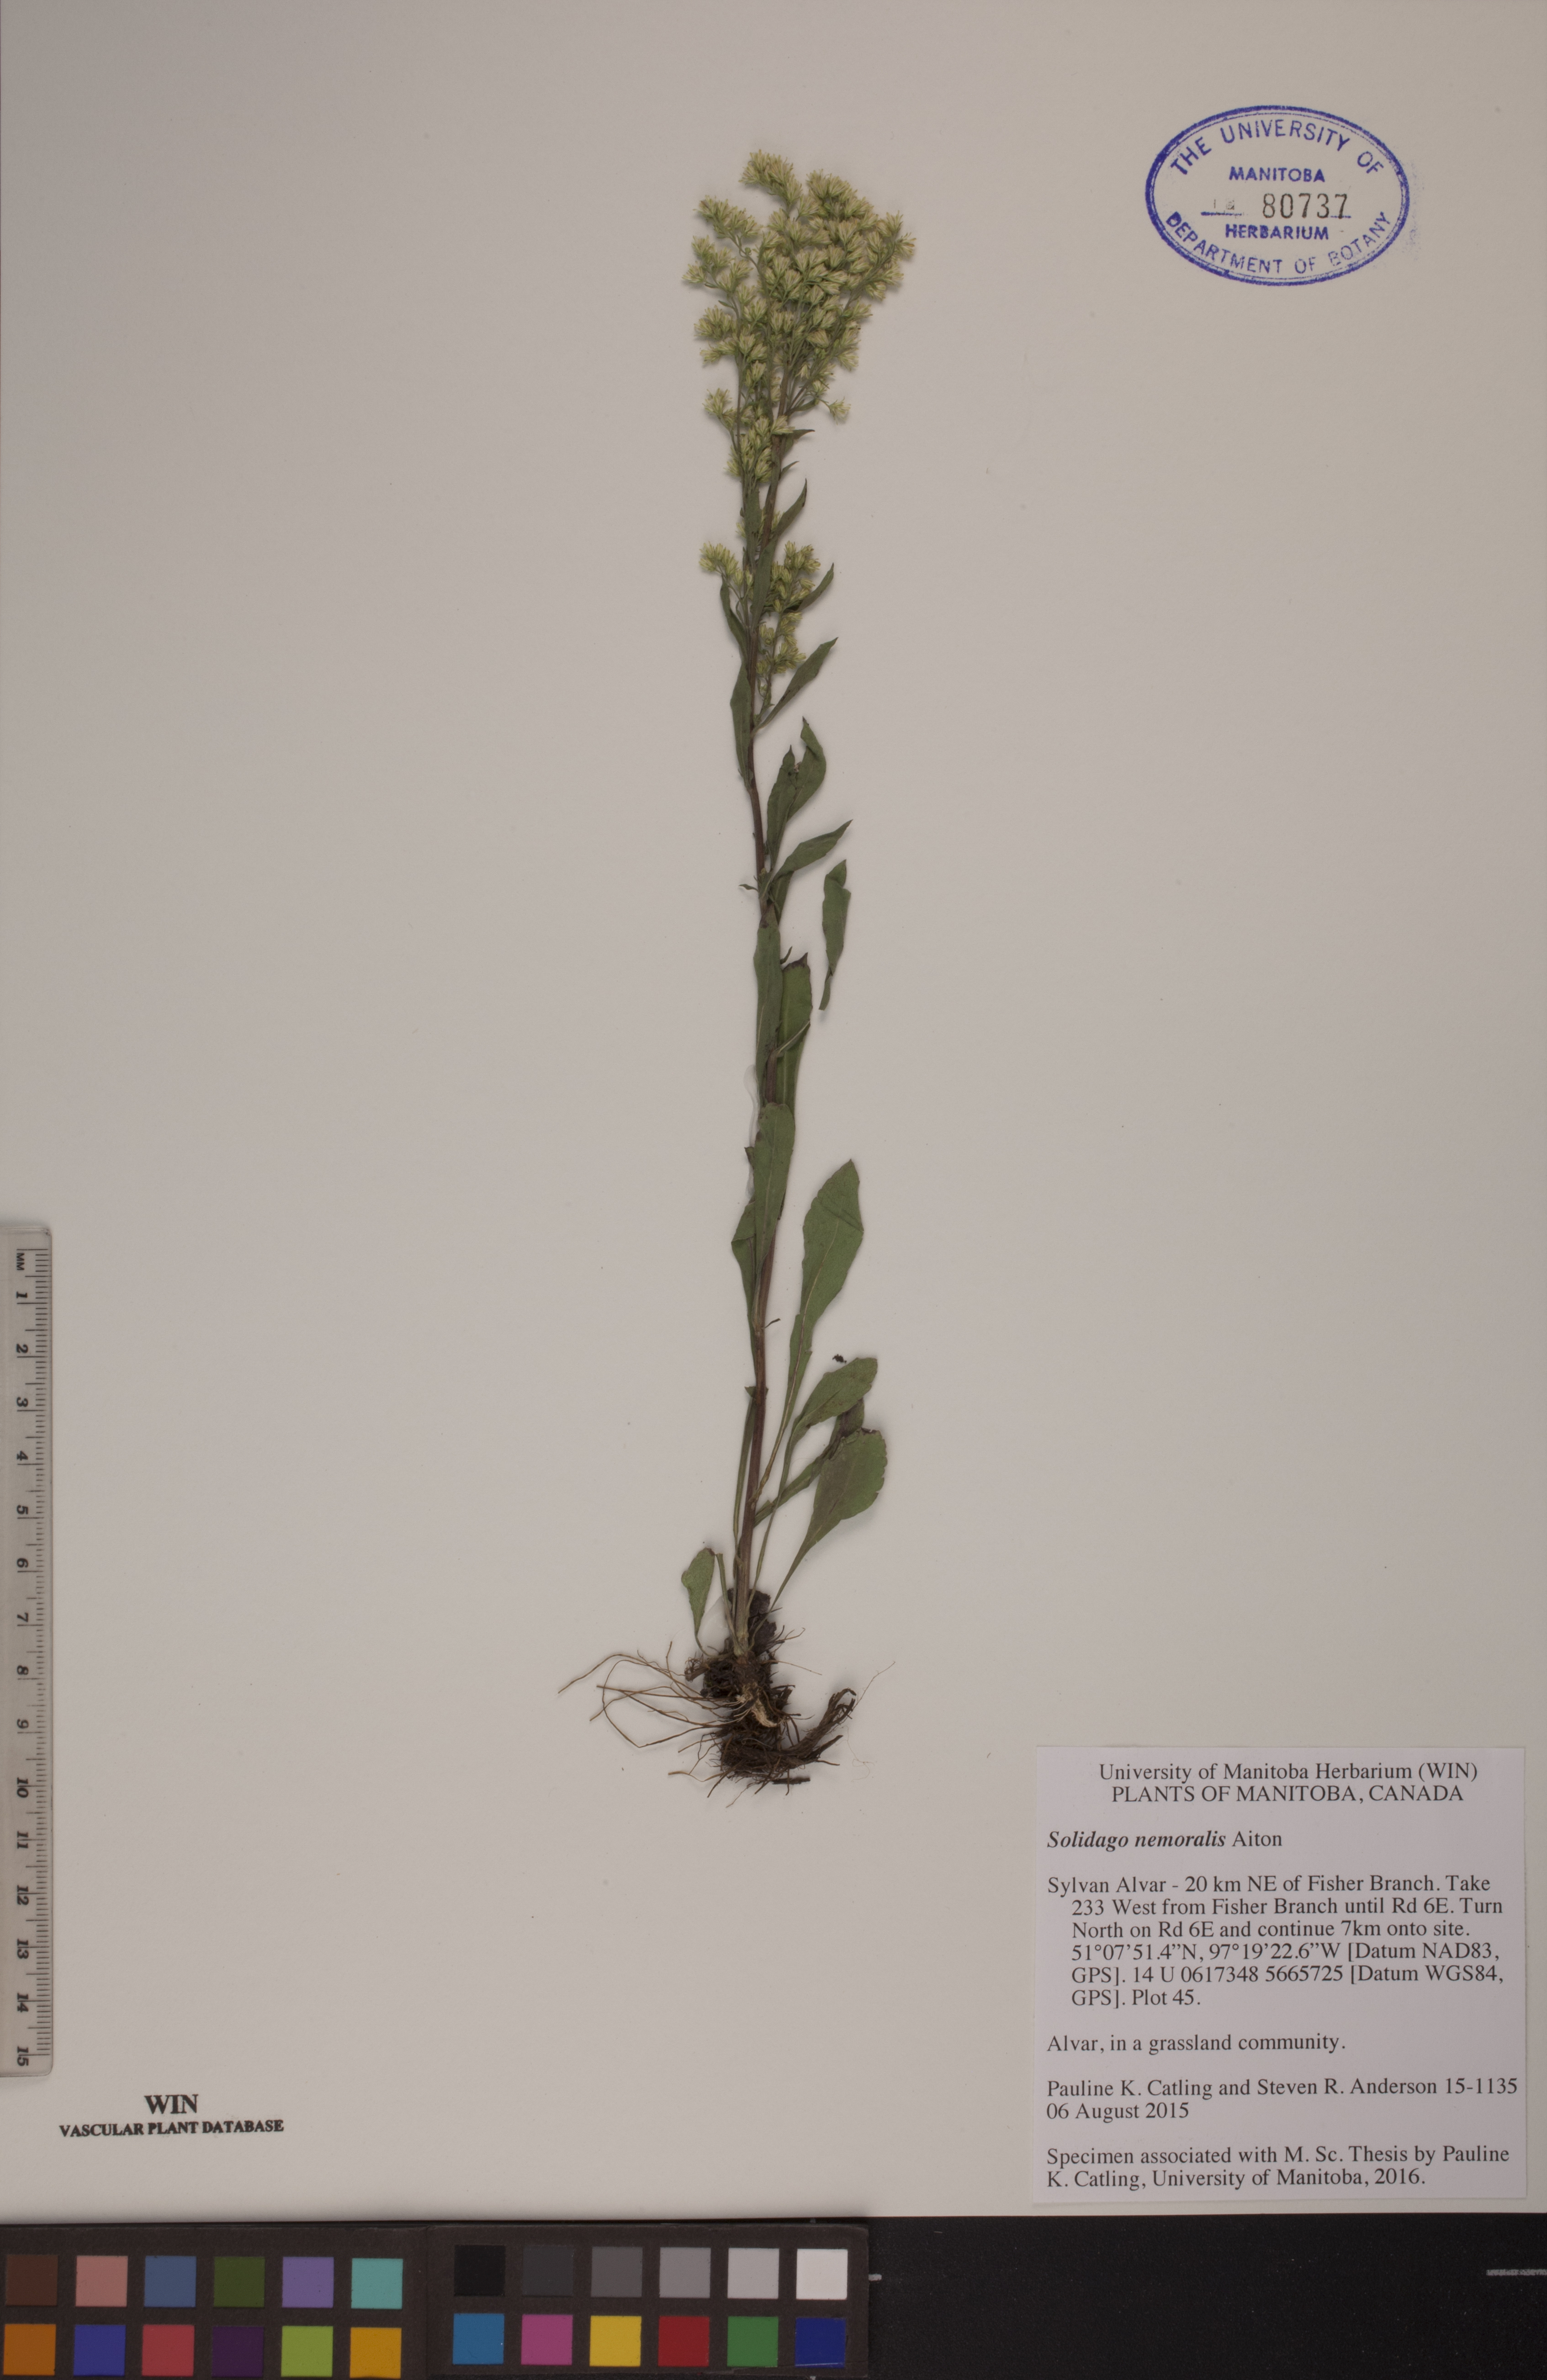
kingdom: Plantae
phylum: Tracheophyta
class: Magnoliopsida
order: Asterales
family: Asteraceae
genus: Solidago
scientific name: Solidago nemoralis
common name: Grey goldenrod
